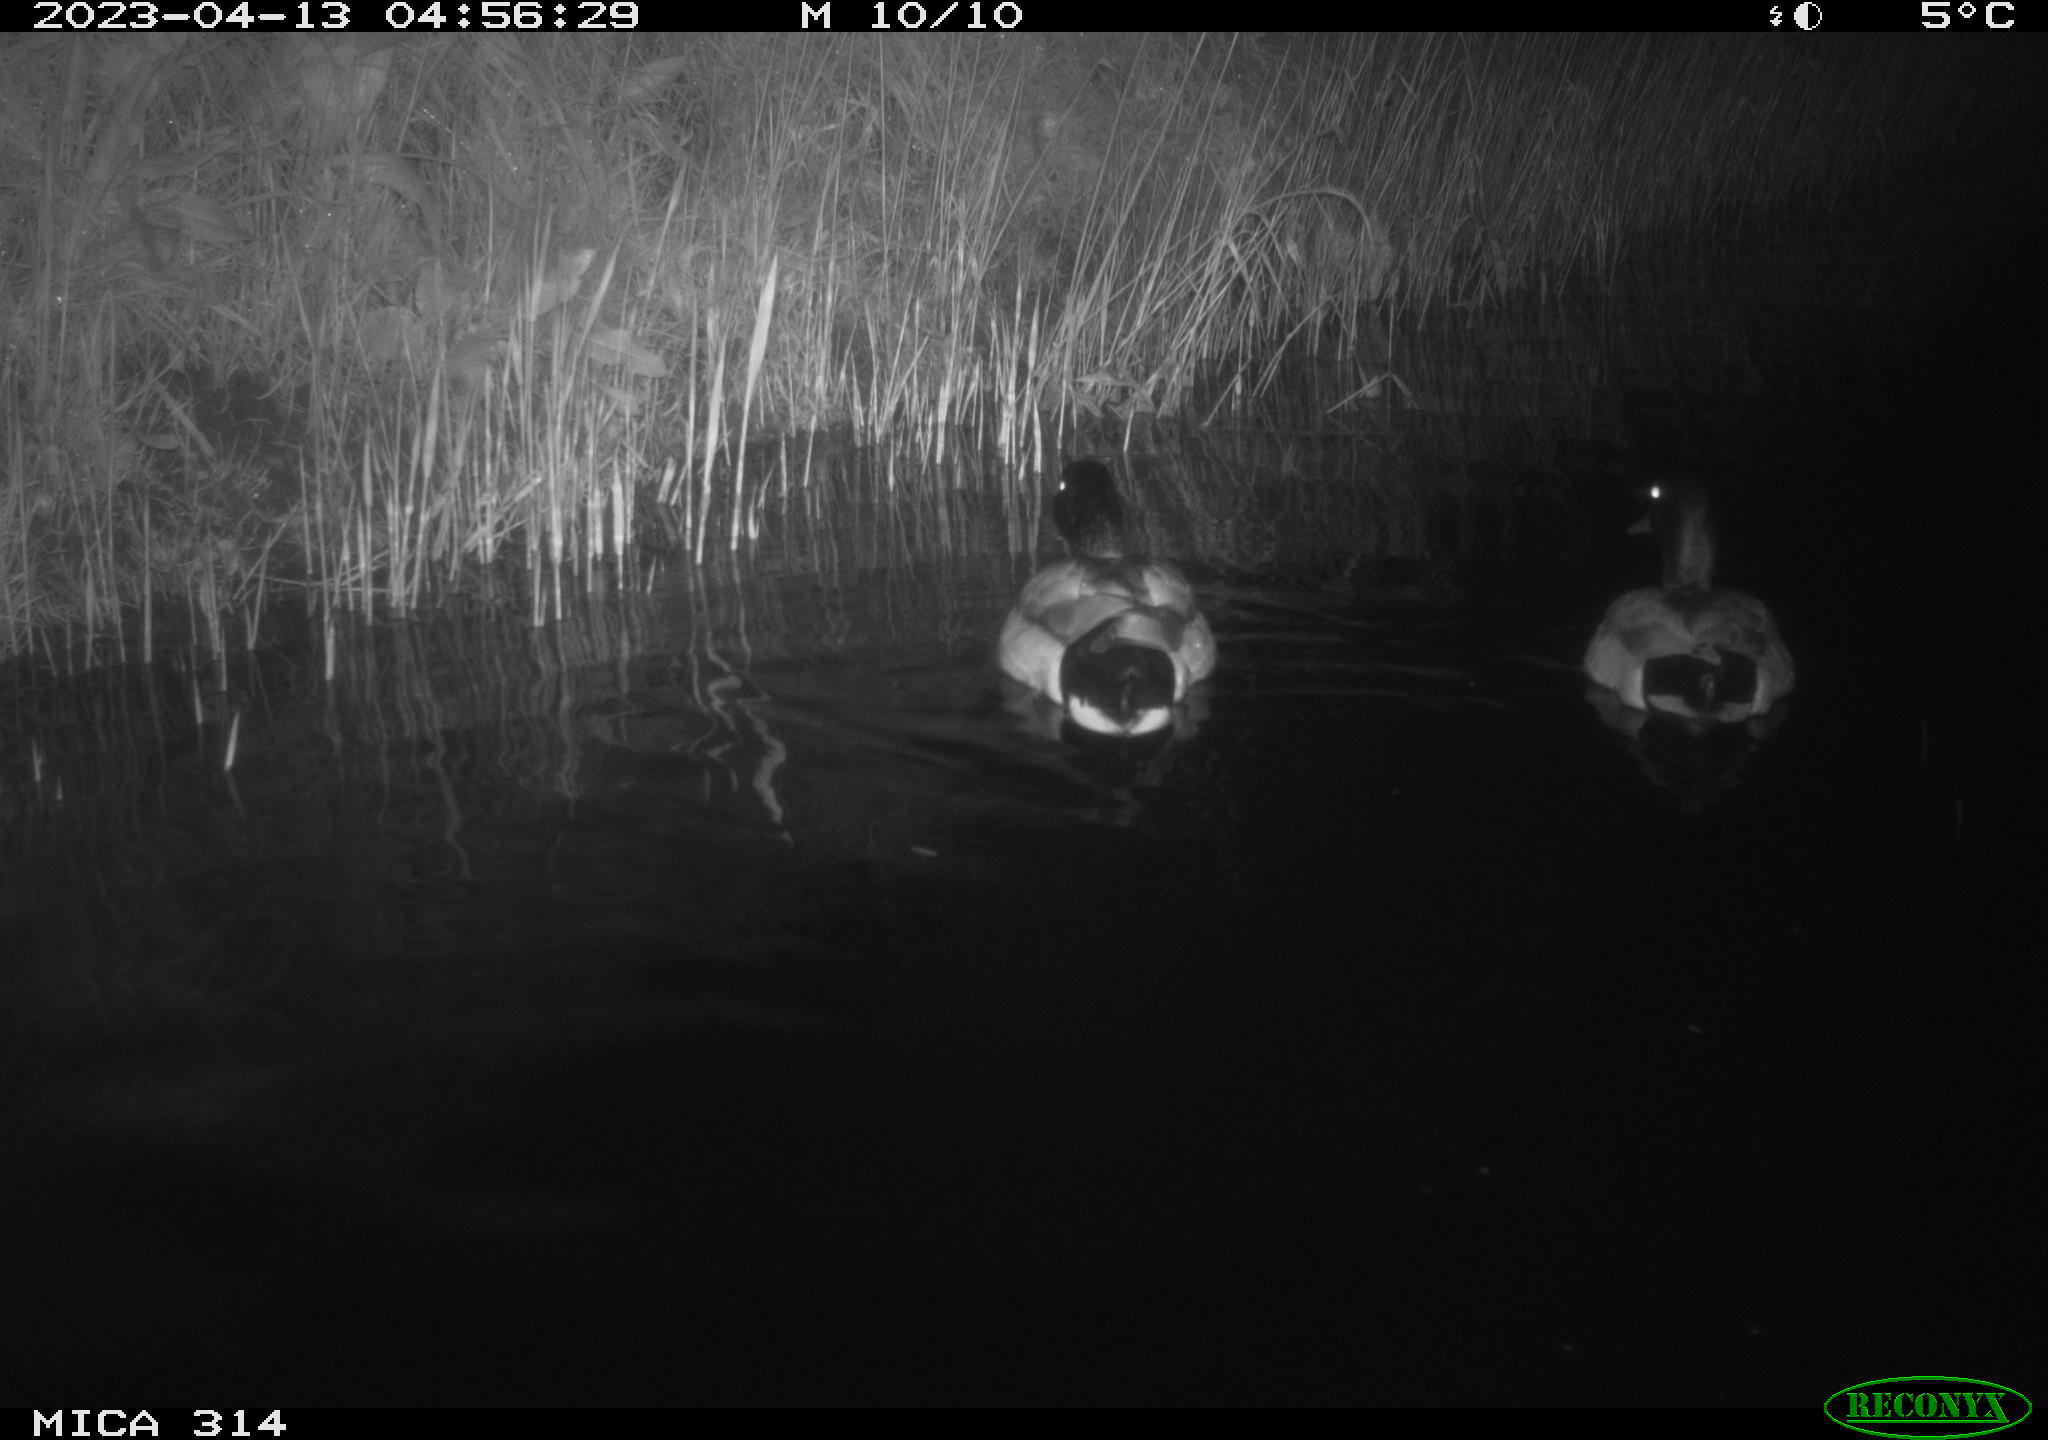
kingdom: Animalia
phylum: Chordata
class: Aves
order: Anseriformes
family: Anatidae
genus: Anas
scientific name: Anas
